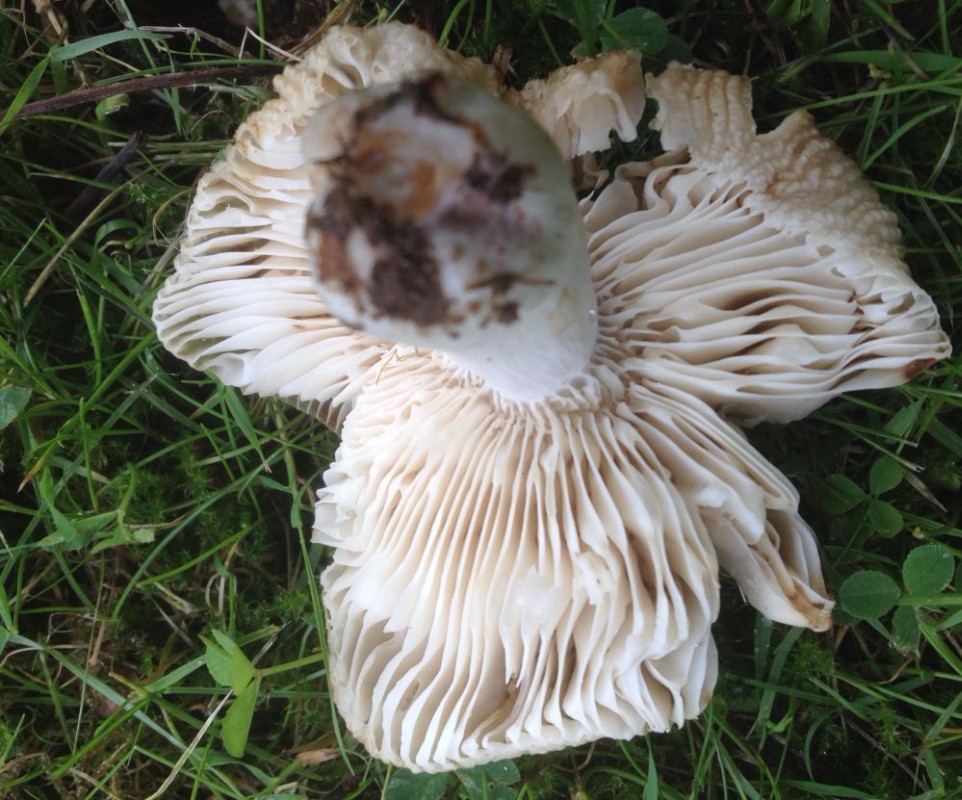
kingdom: Fungi
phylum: Basidiomycota
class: Agaricomycetes
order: Russulales
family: Russulaceae
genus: Russula
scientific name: Russula recondita
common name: mild kam-skørhat
